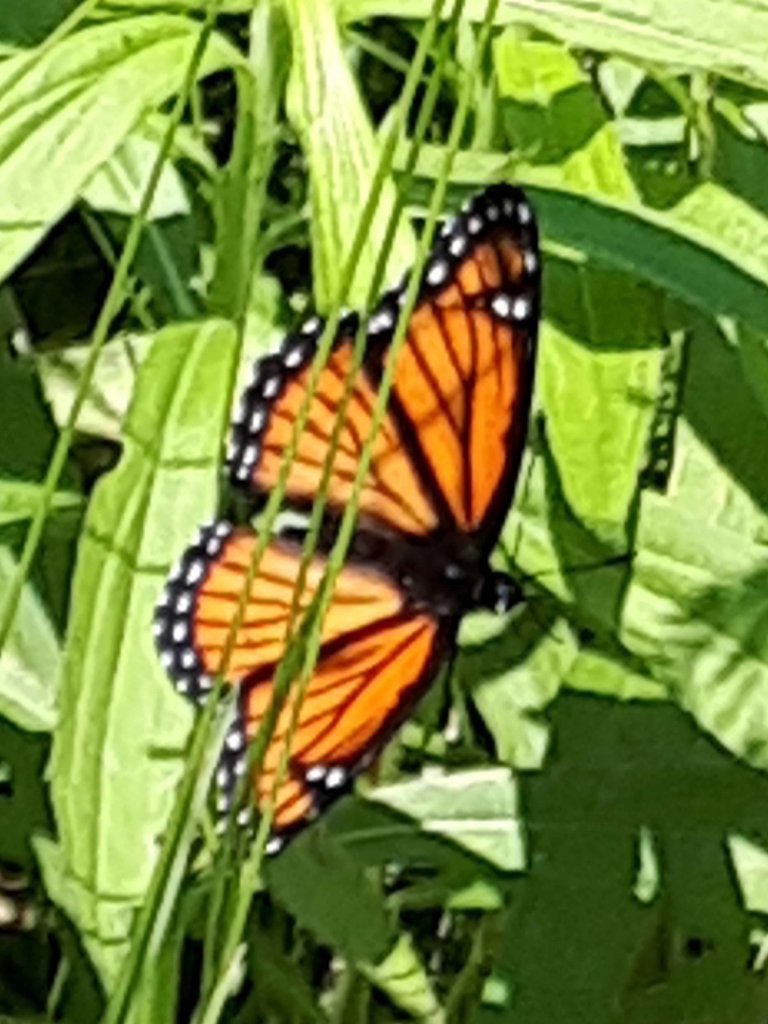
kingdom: Animalia
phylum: Arthropoda
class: Insecta
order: Lepidoptera
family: Nymphalidae
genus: Limenitis
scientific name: Limenitis archippus
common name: Viceroy
